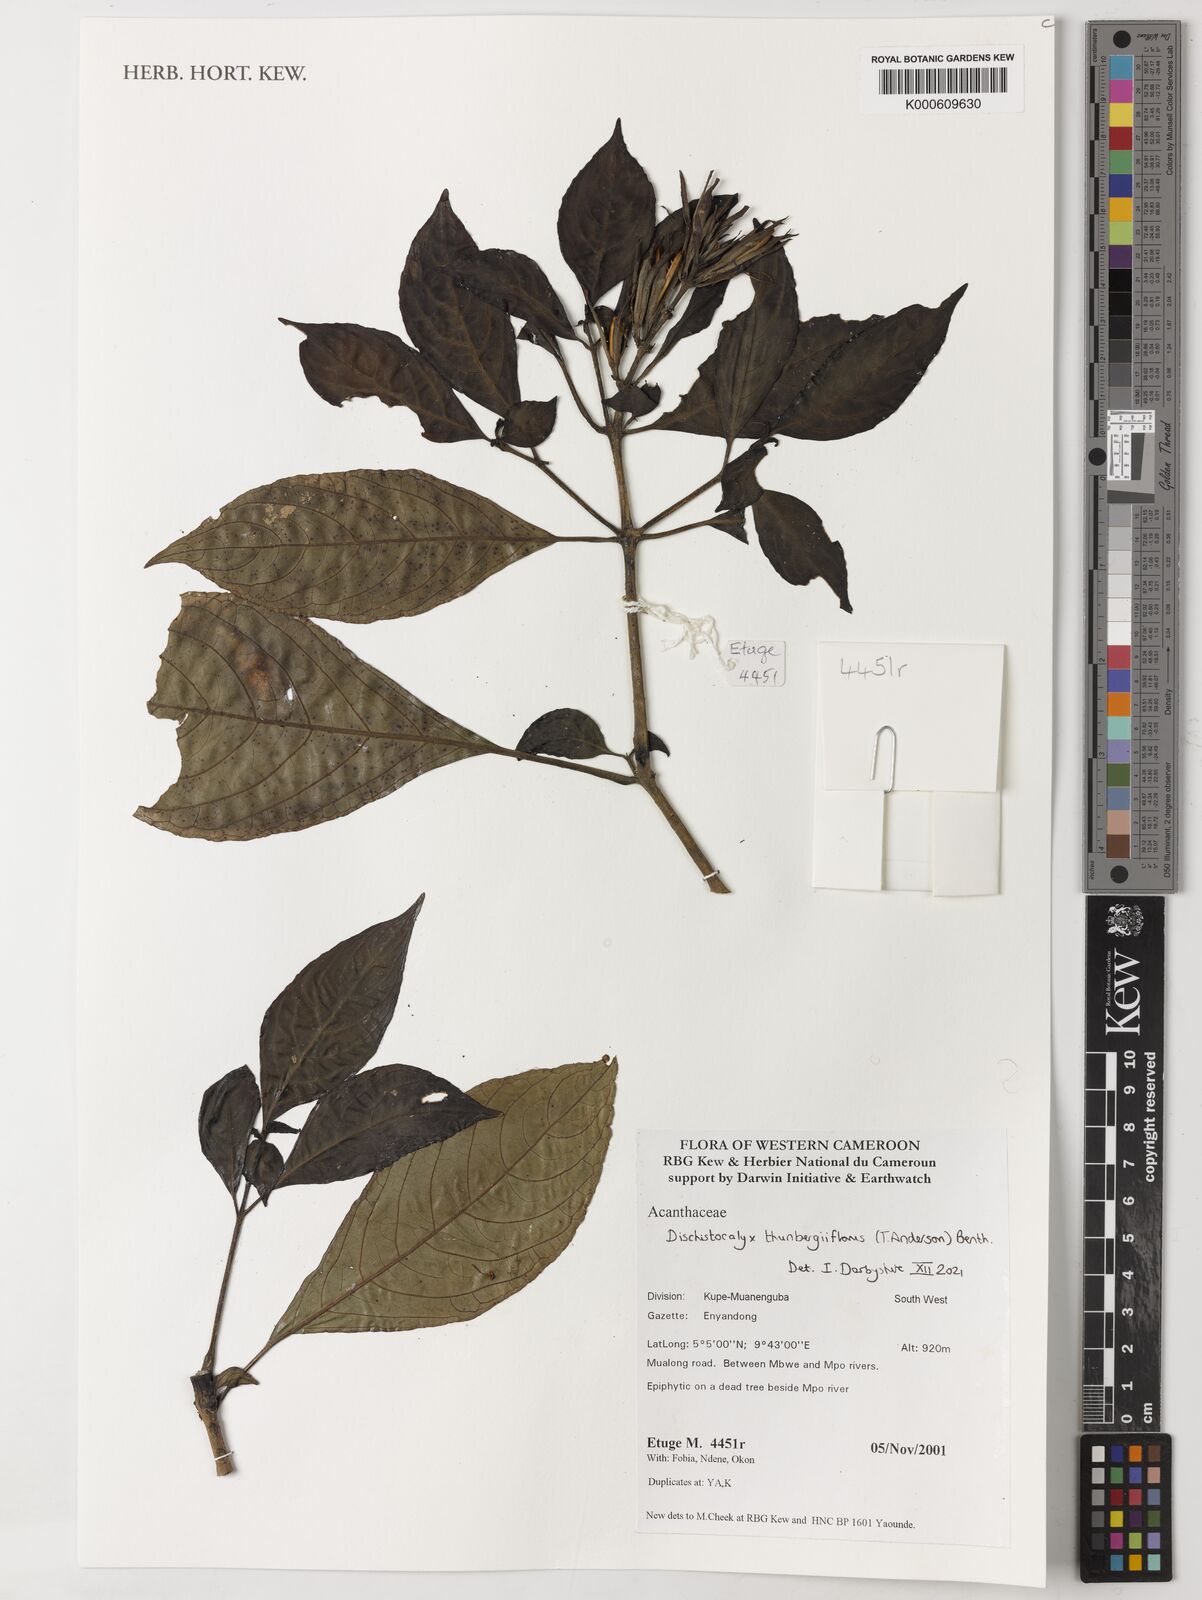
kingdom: Plantae
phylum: Tracheophyta
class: Magnoliopsida
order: Lamiales
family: Acanthaceae
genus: Dischistocalyx
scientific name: Dischistocalyx thunbergiiflora
